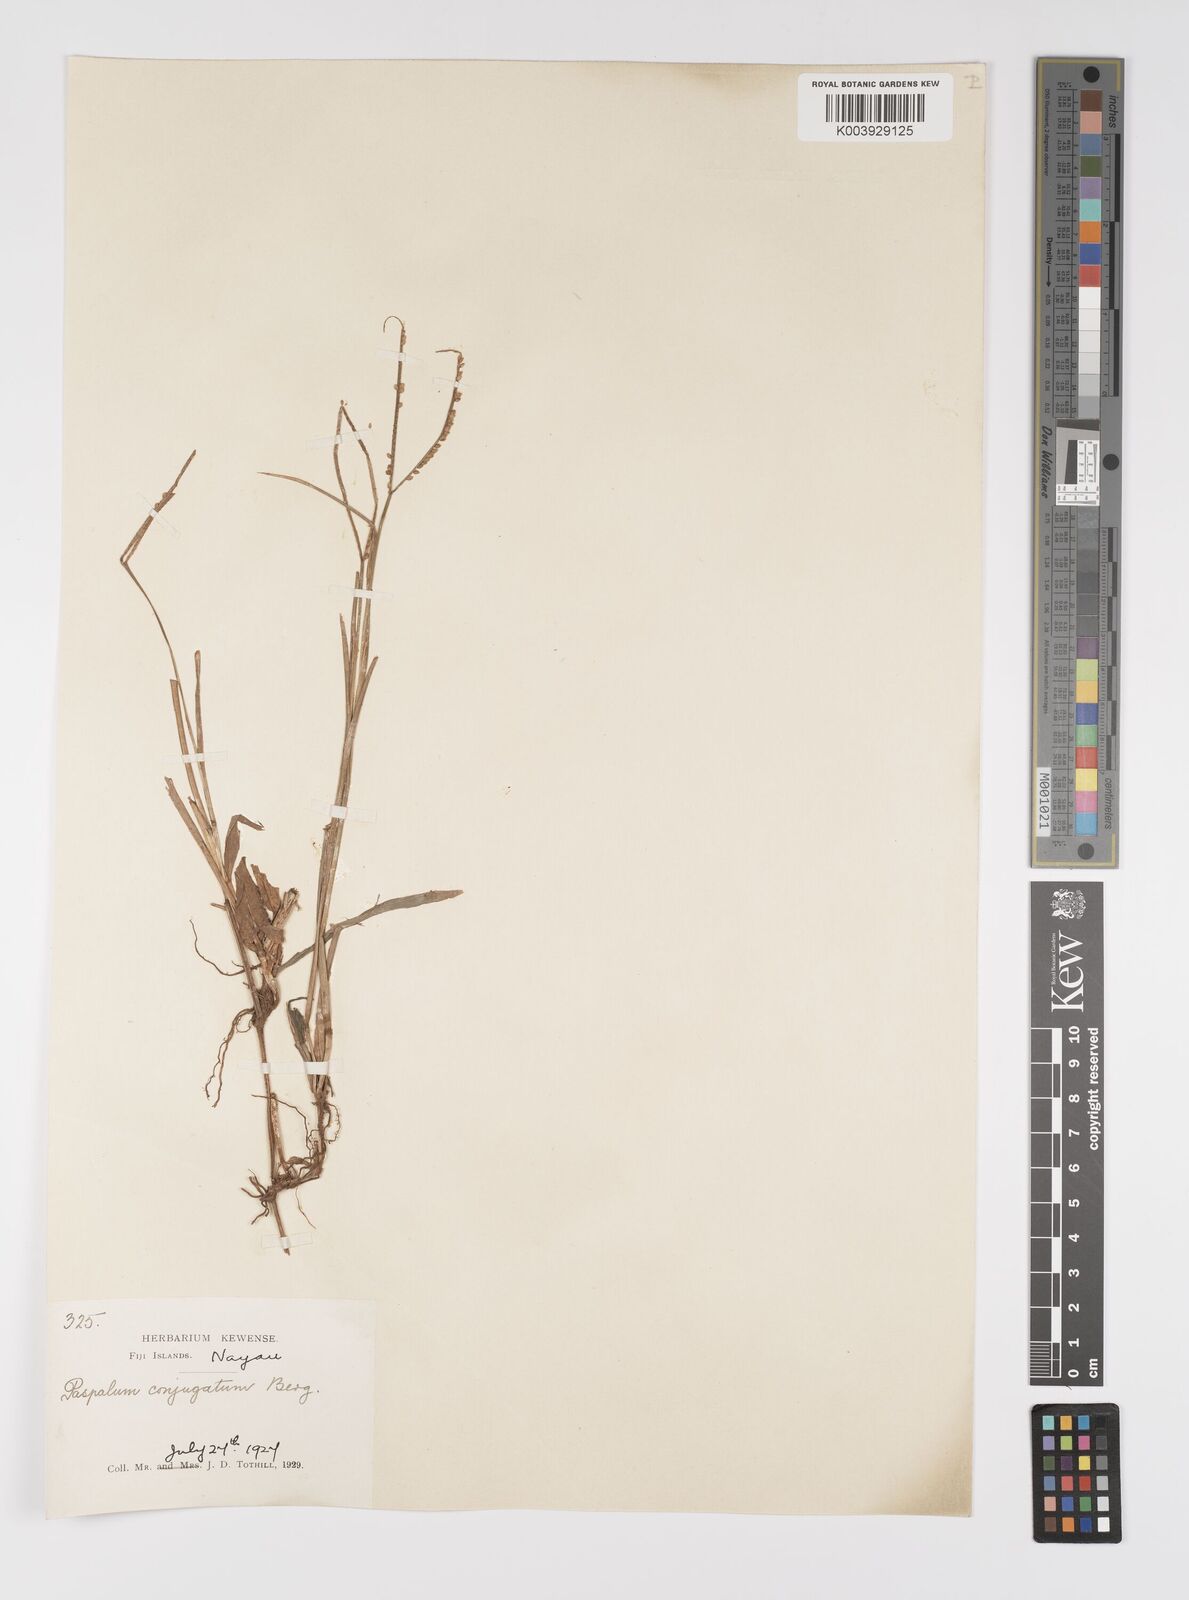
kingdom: Plantae
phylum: Tracheophyta
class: Liliopsida
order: Poales
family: Poaceae
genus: Paspalum
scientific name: Paspalum conjugatum
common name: Hilograss
